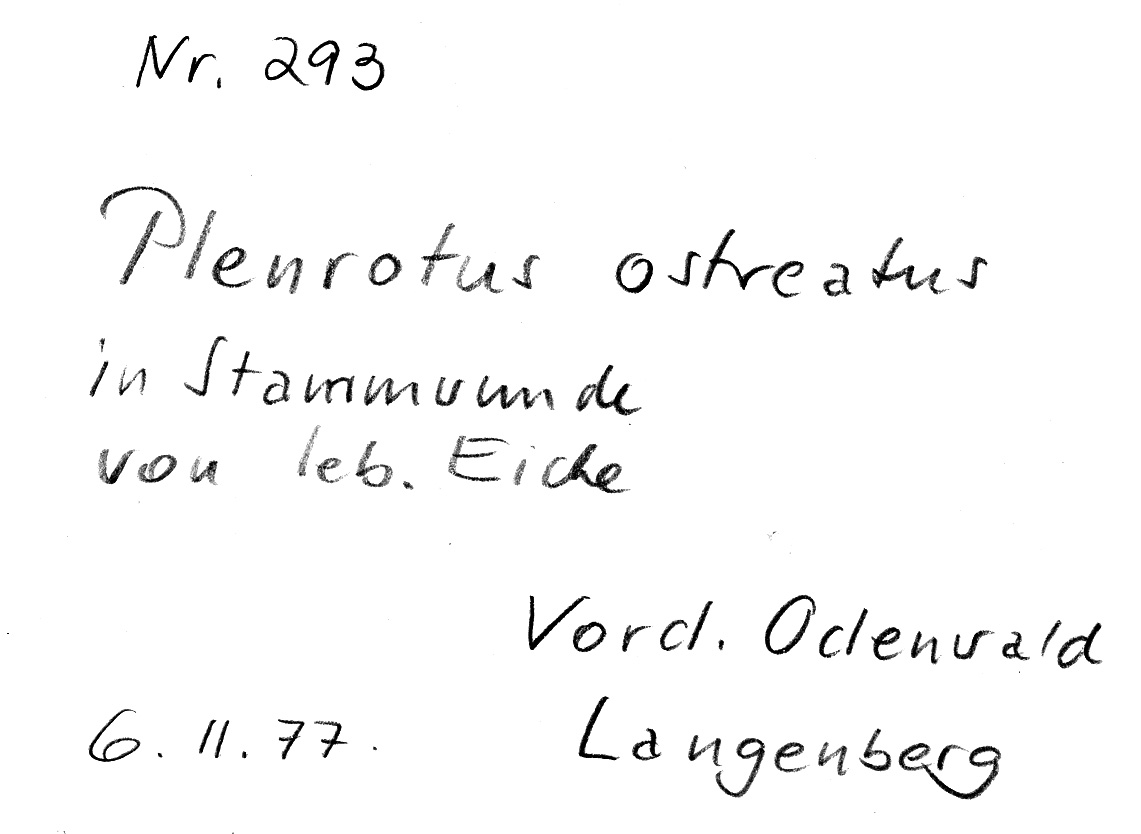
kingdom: Fungi
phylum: Basidiomycota
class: Agaricomycetes
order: Agaricales
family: Pleurotaceae
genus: Pleurotus
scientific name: Pleurotus ostreatus
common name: Oyster mushroom
